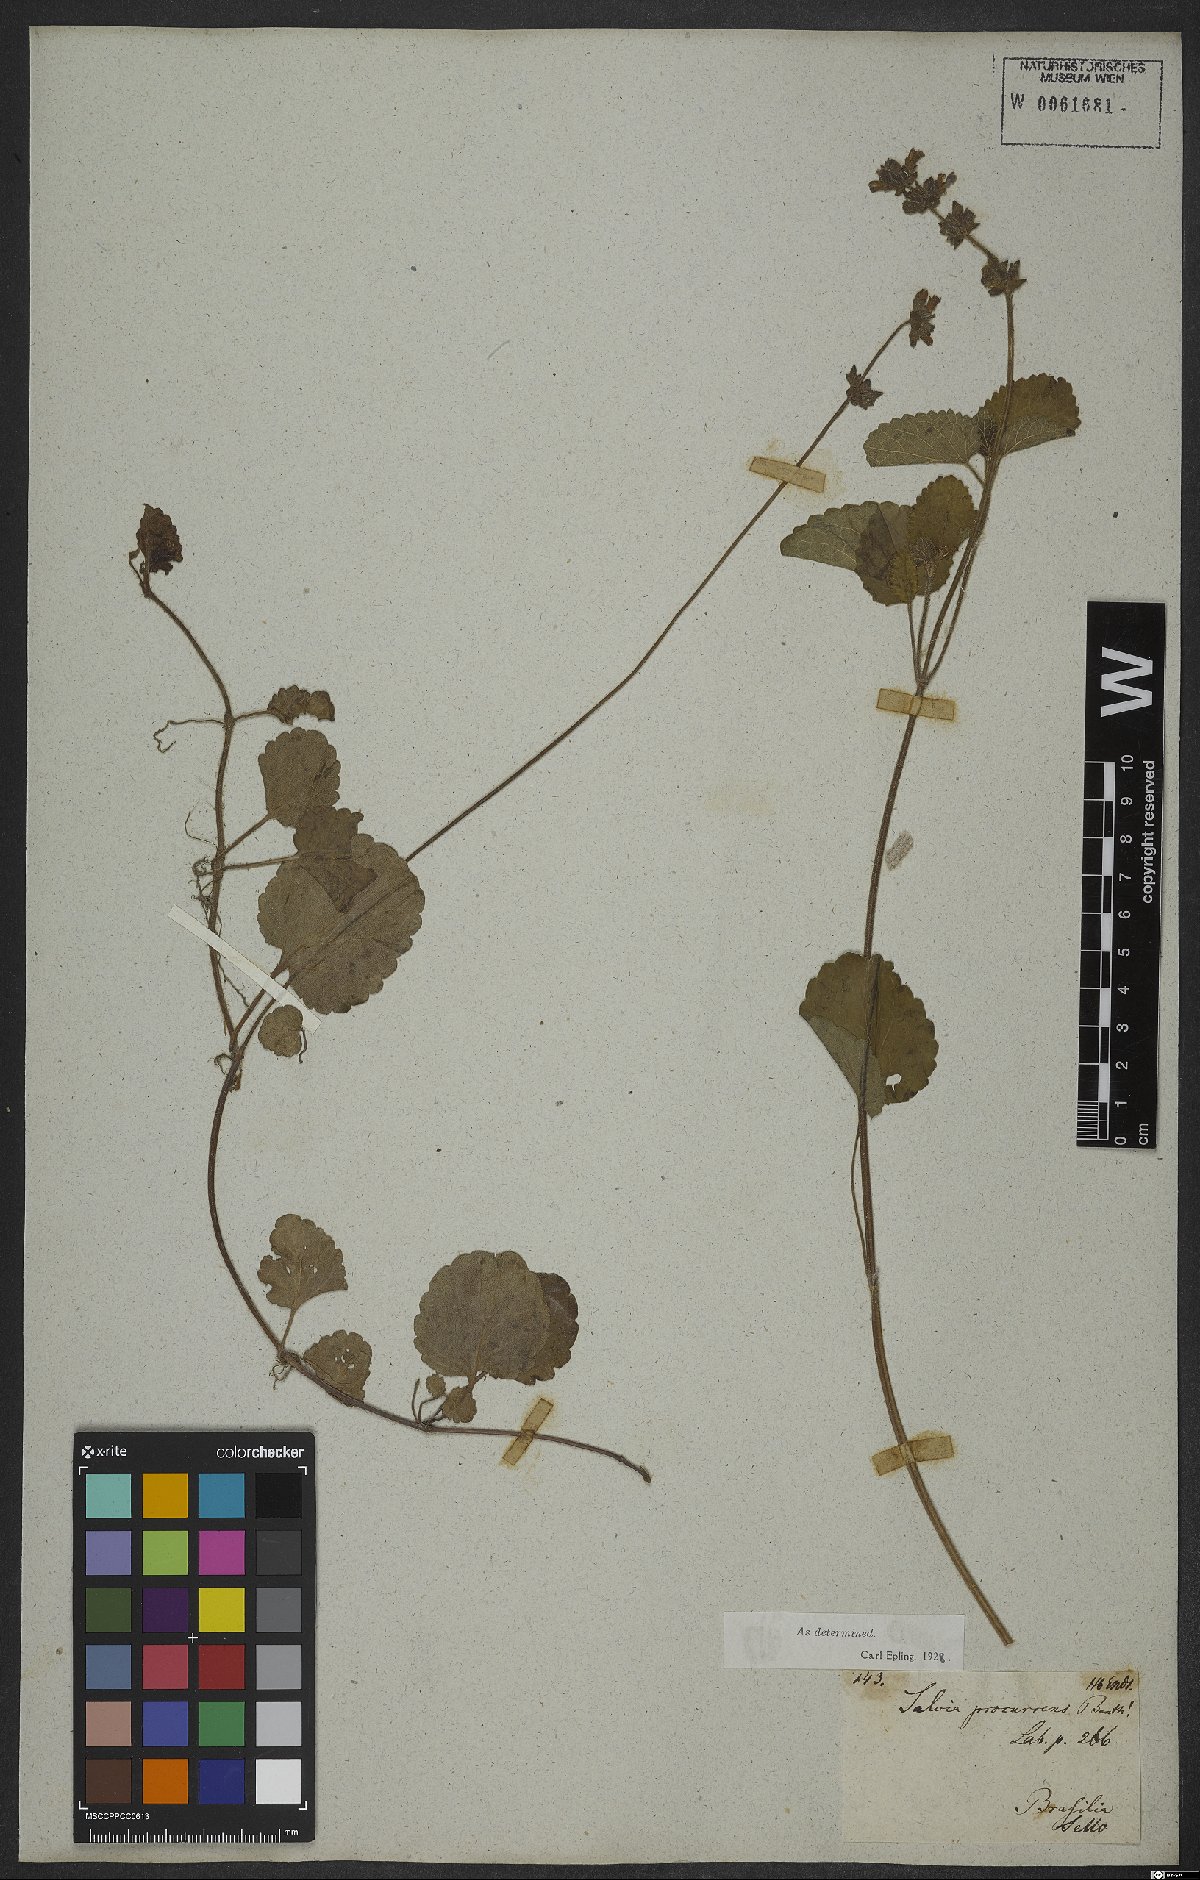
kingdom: Plantae
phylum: Tracheophyta
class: Magnoliopsida
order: Lamiales
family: Lamiaceae
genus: Salvia
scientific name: Salvia procurrens
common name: Blue creeper
